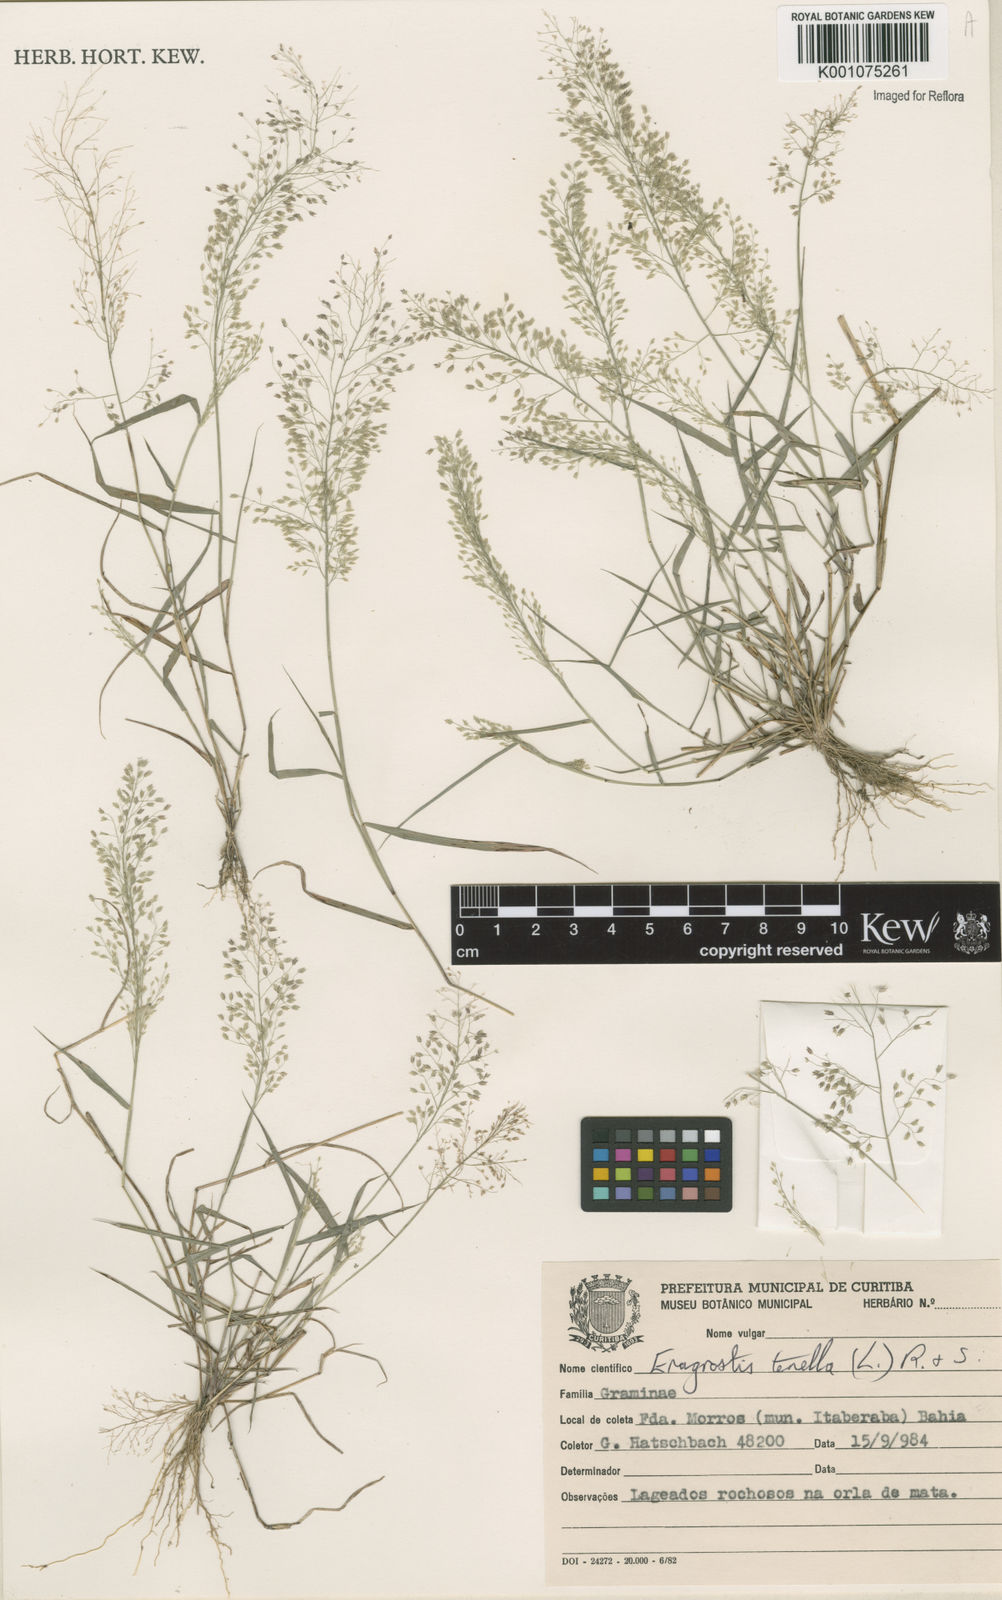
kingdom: Plantae
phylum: Tracheophyta
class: Liliopsida
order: Poales
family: Poaceae
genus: Eragrostis
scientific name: Eragrostis tenella
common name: Japanese lovegrass
